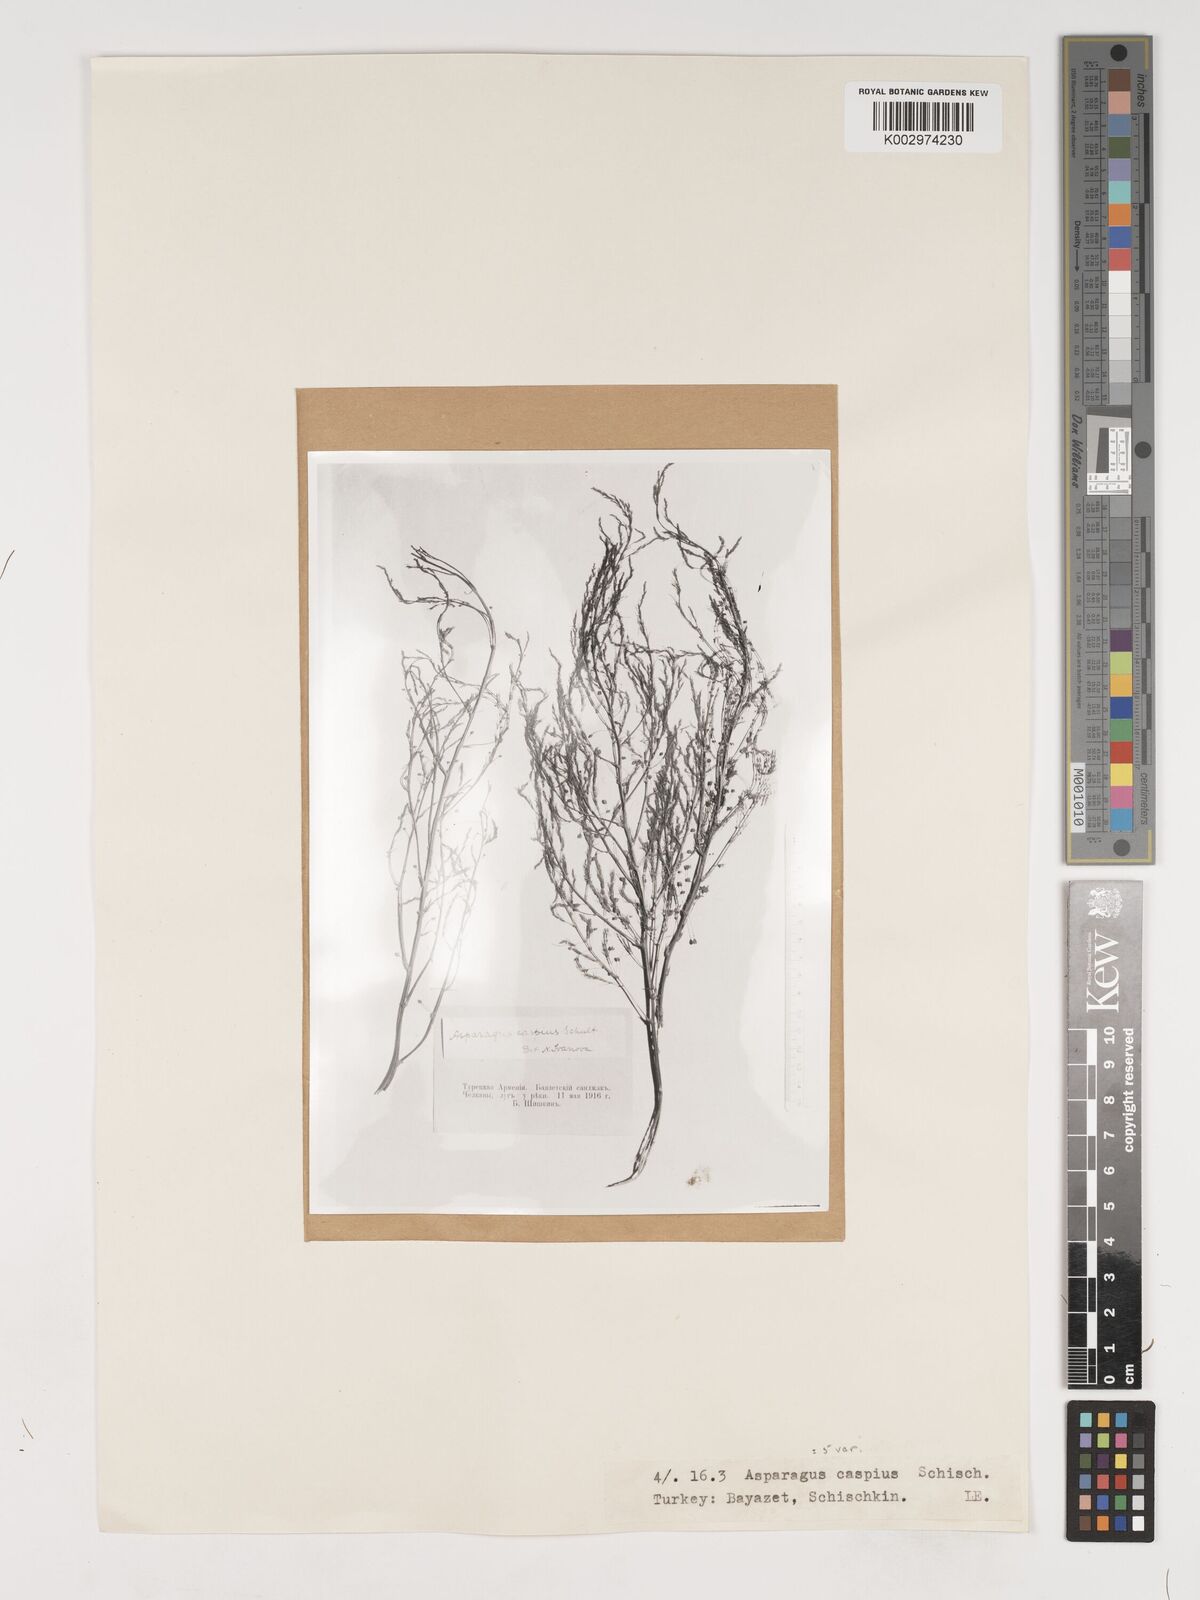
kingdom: Plantae
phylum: Tracheophyta
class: Liliopsida
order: Asparagales
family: Asparagaceae
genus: Asparagus
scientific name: Asparagus officinalis
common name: Garden asparagus
